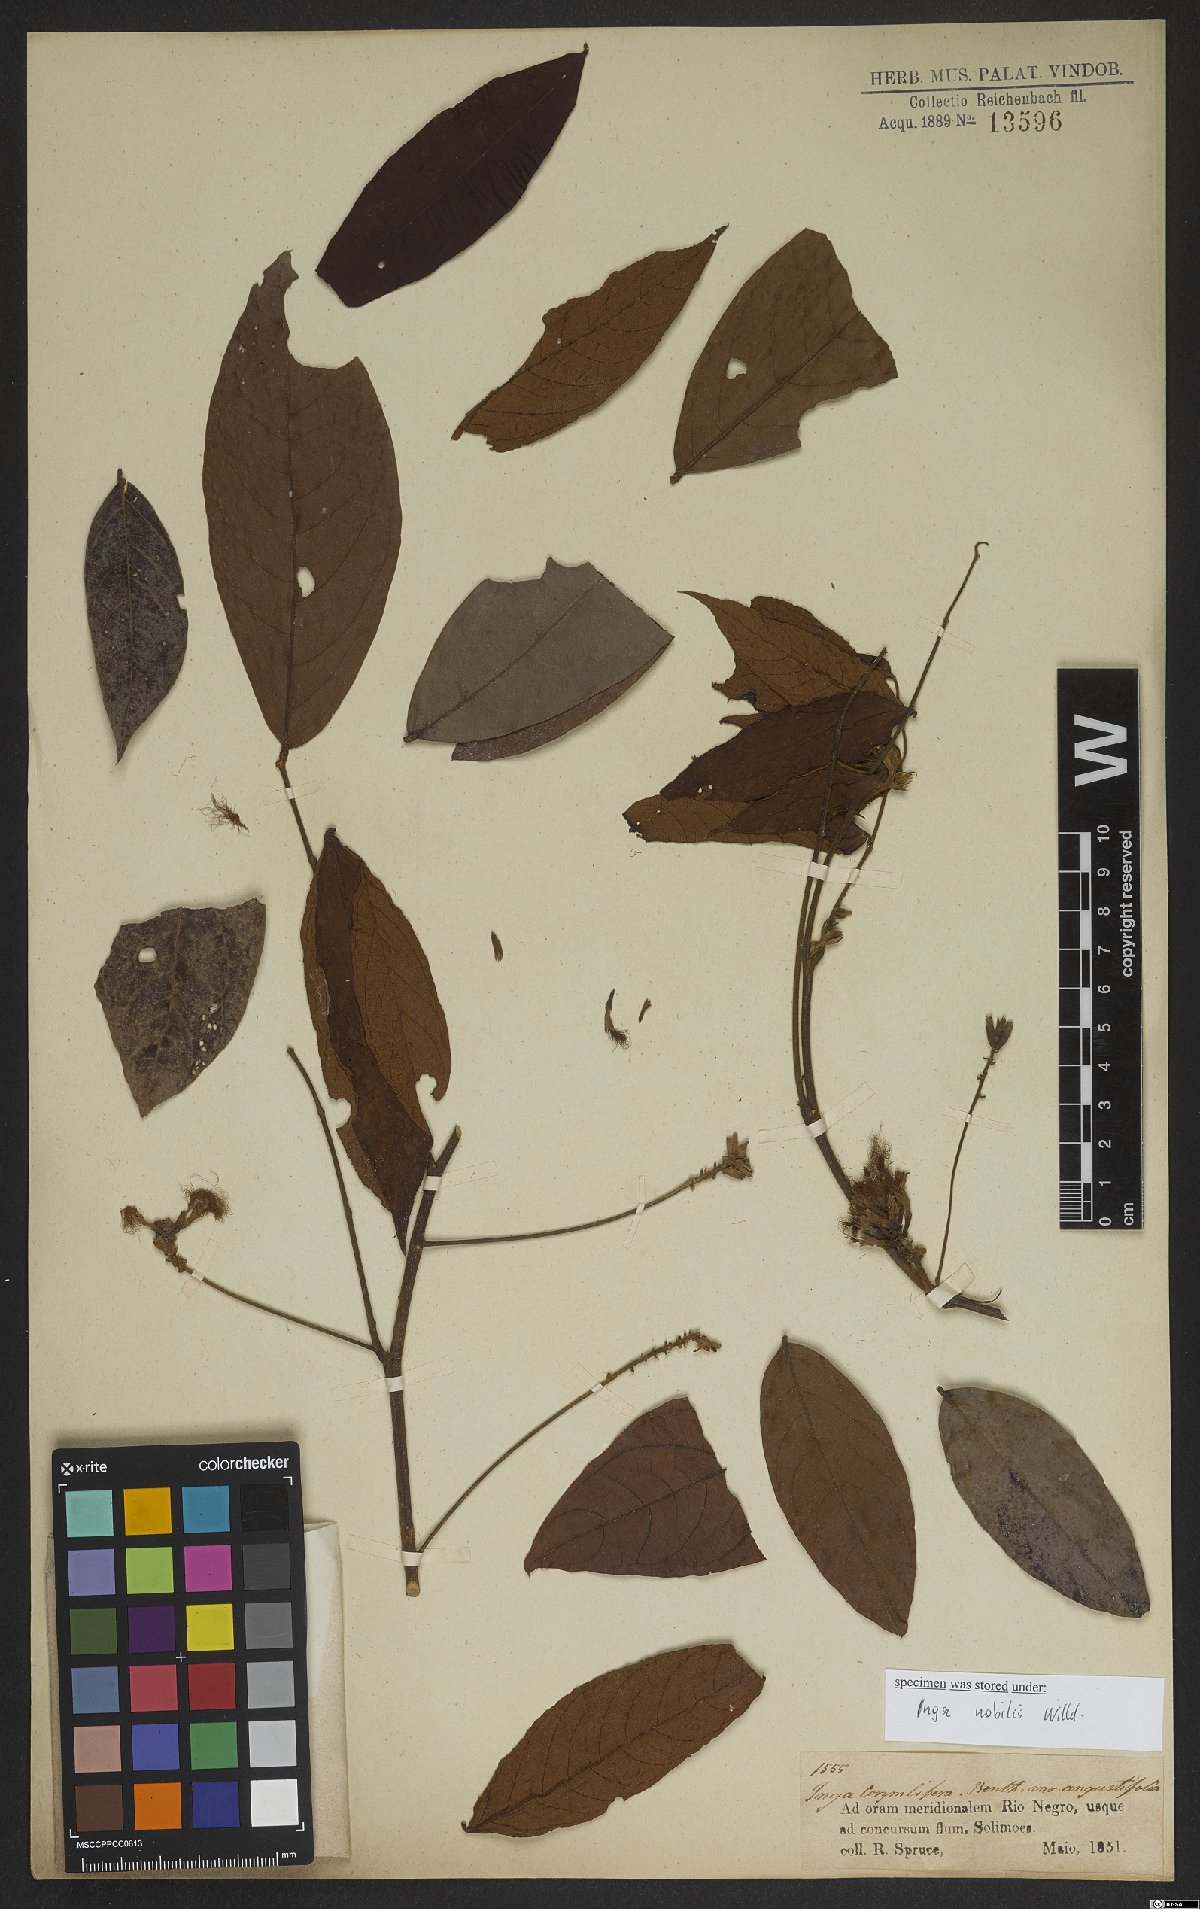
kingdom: Plantae
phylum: Tracheophyta
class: Magnoliopsida
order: Fabales
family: Fabaceae
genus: Inga
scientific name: Inga nobilis
